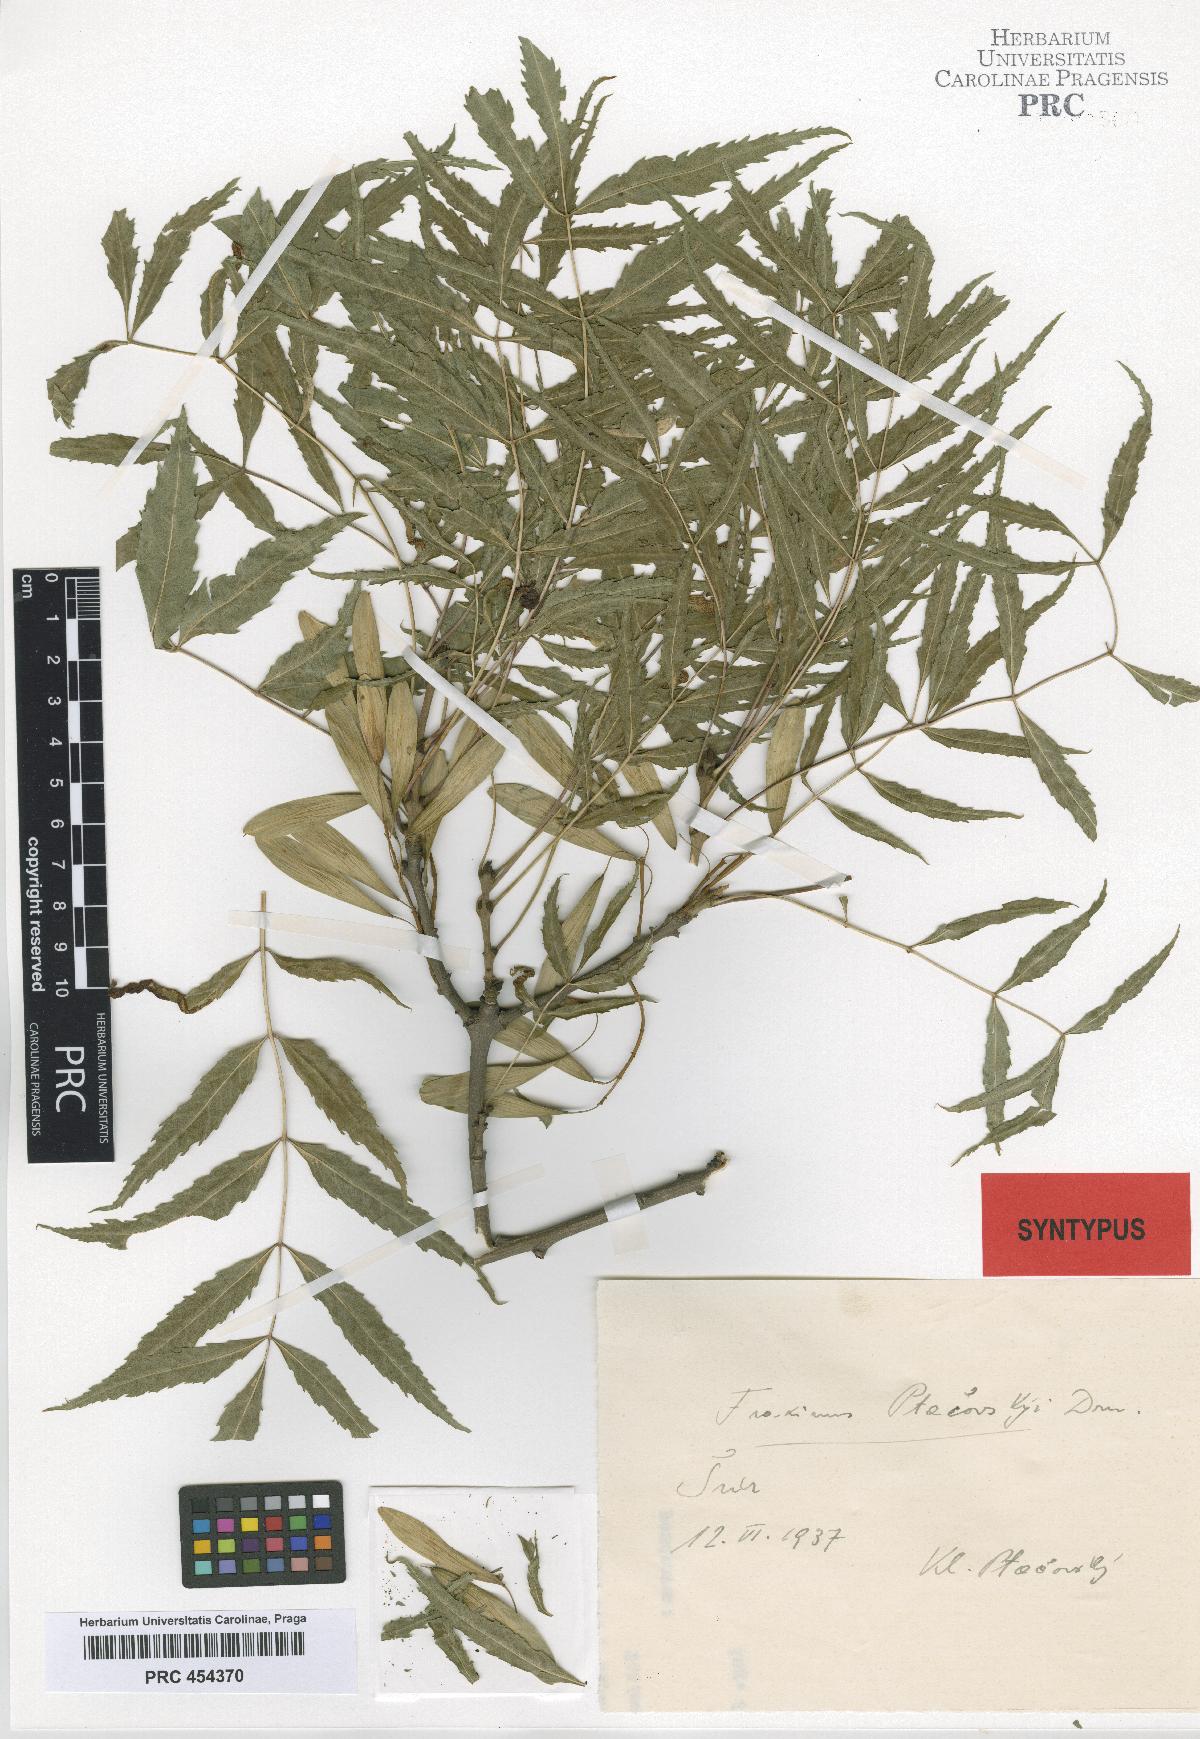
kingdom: Plantae
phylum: Tracheophyta
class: Magnoliopsida
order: Lamiales
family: Oleaceae
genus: Fraxinus
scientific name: Fraxinus angustifolia
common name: Narrow-leafed ash
